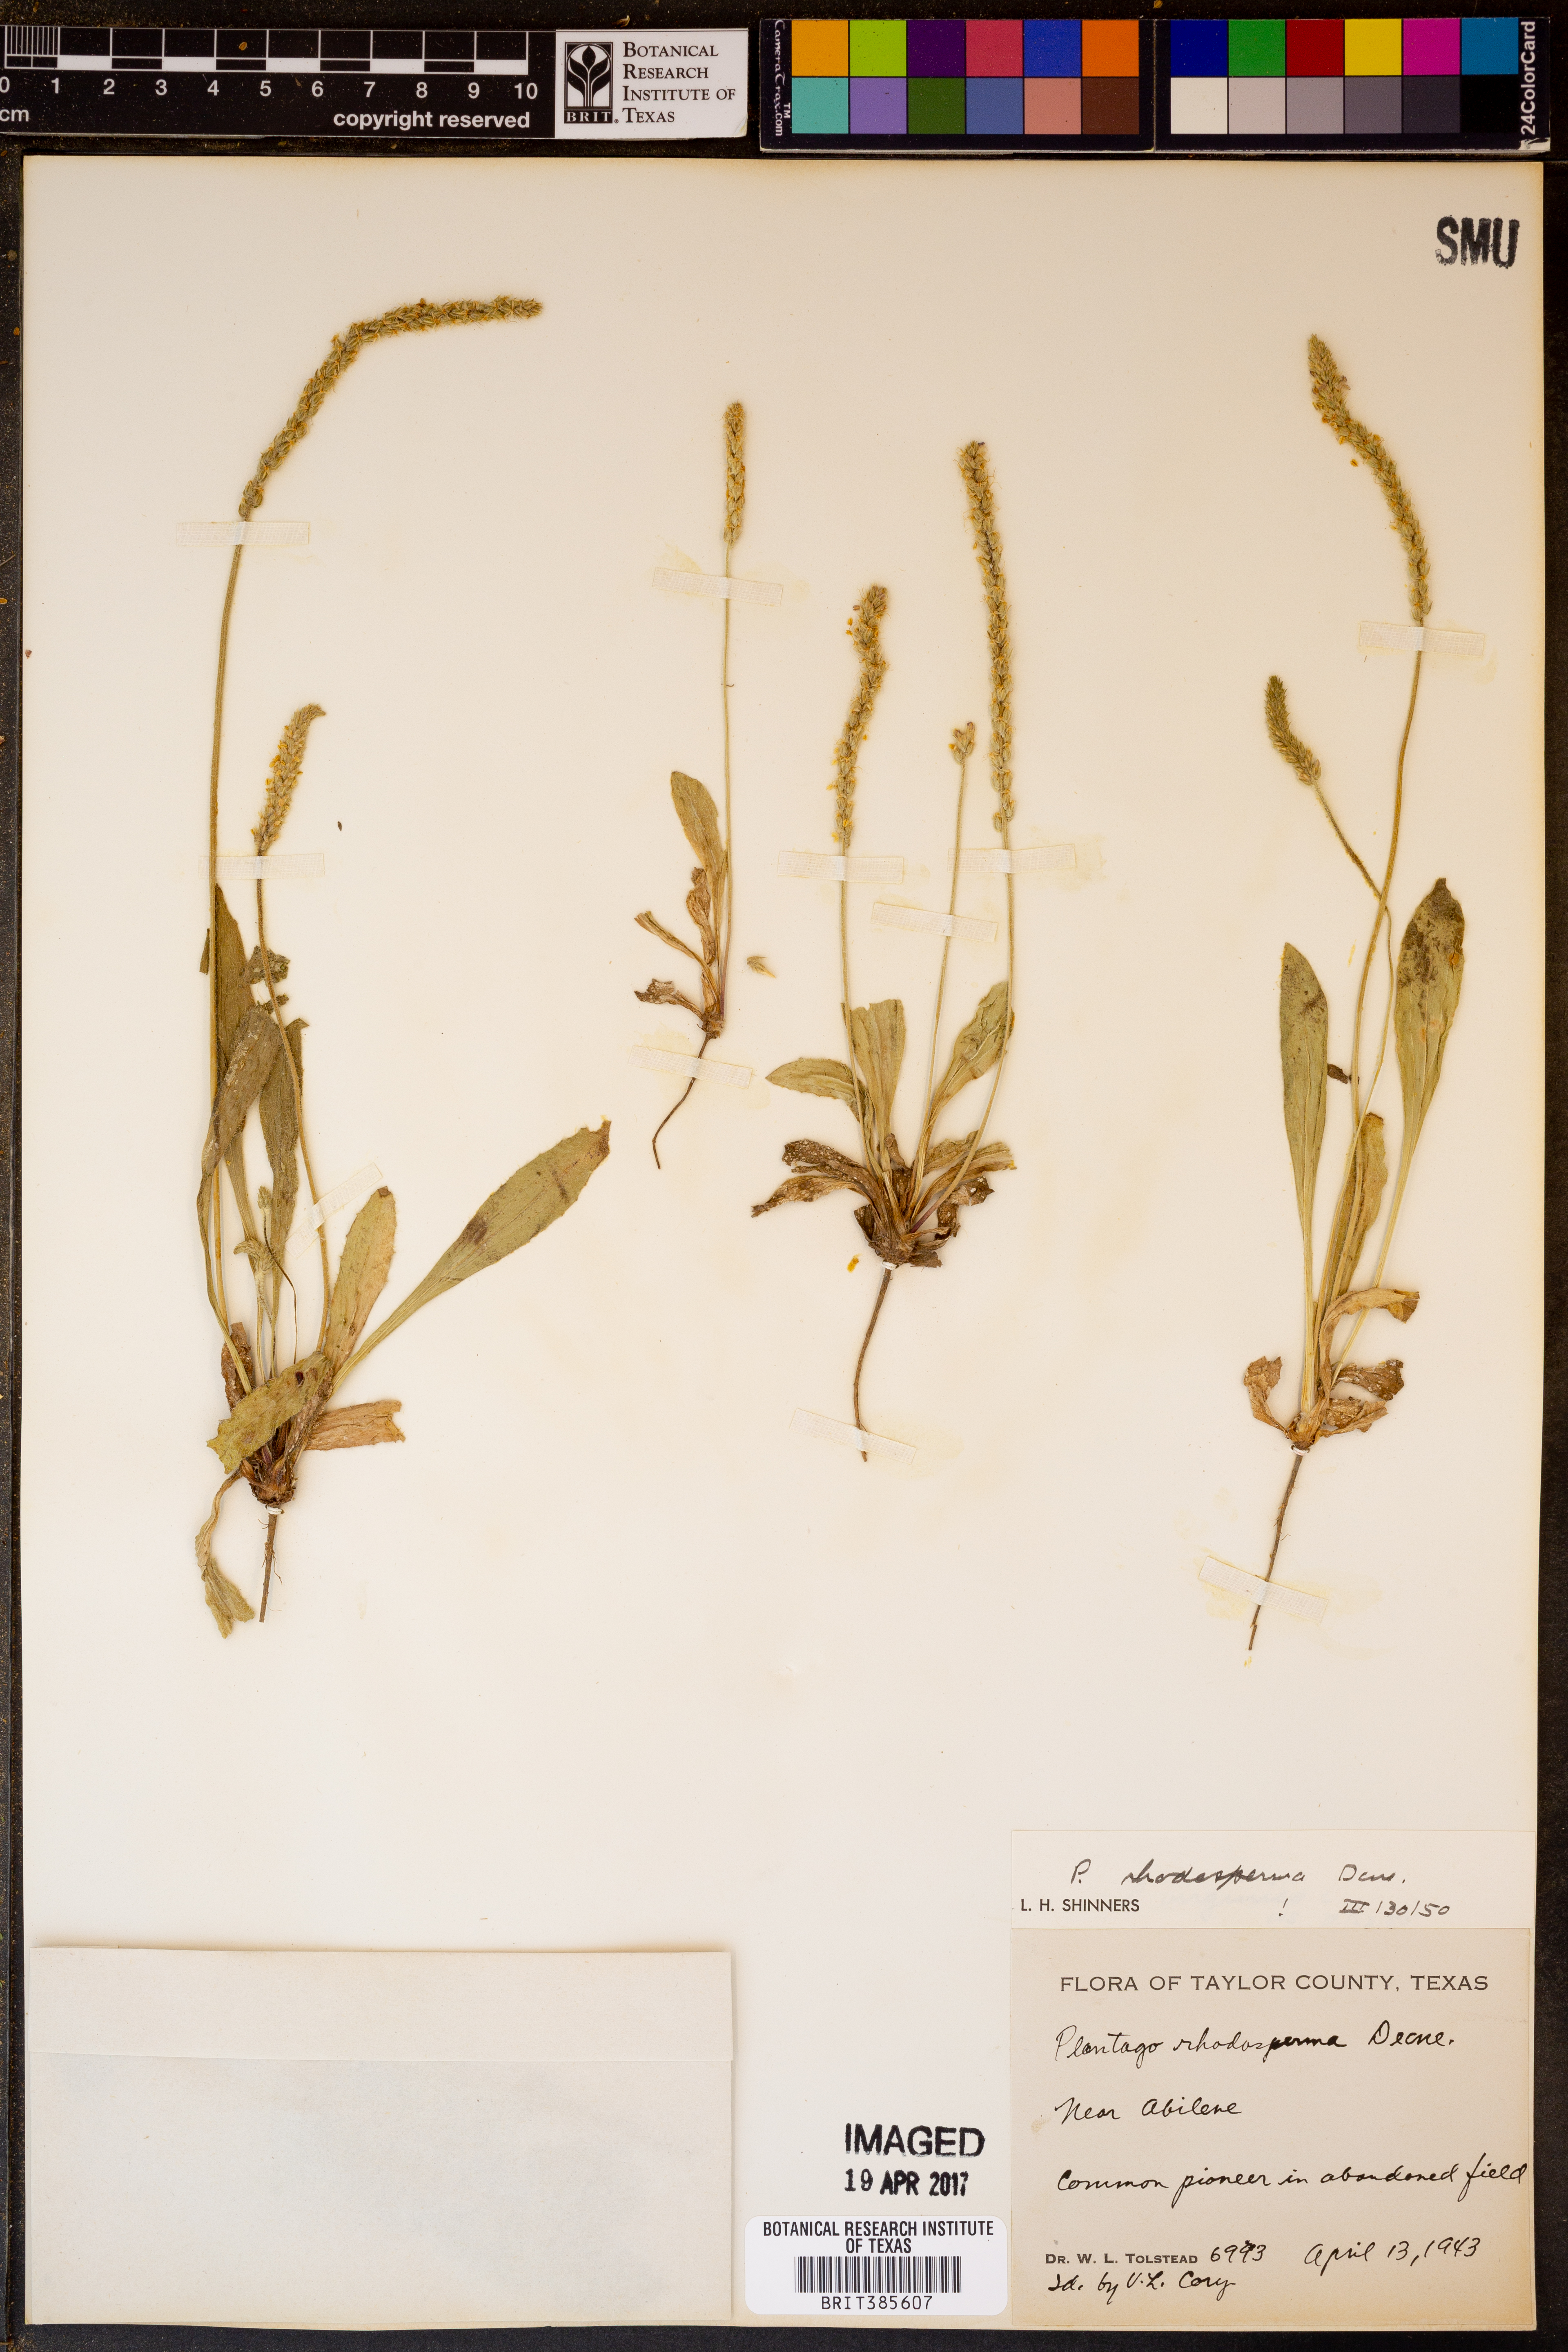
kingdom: Plantae
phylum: Tracheophyta
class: Magnoliopsida
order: Lamiales
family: Plantaginaceae
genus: Plantago
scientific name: Plantago rhodosperma
